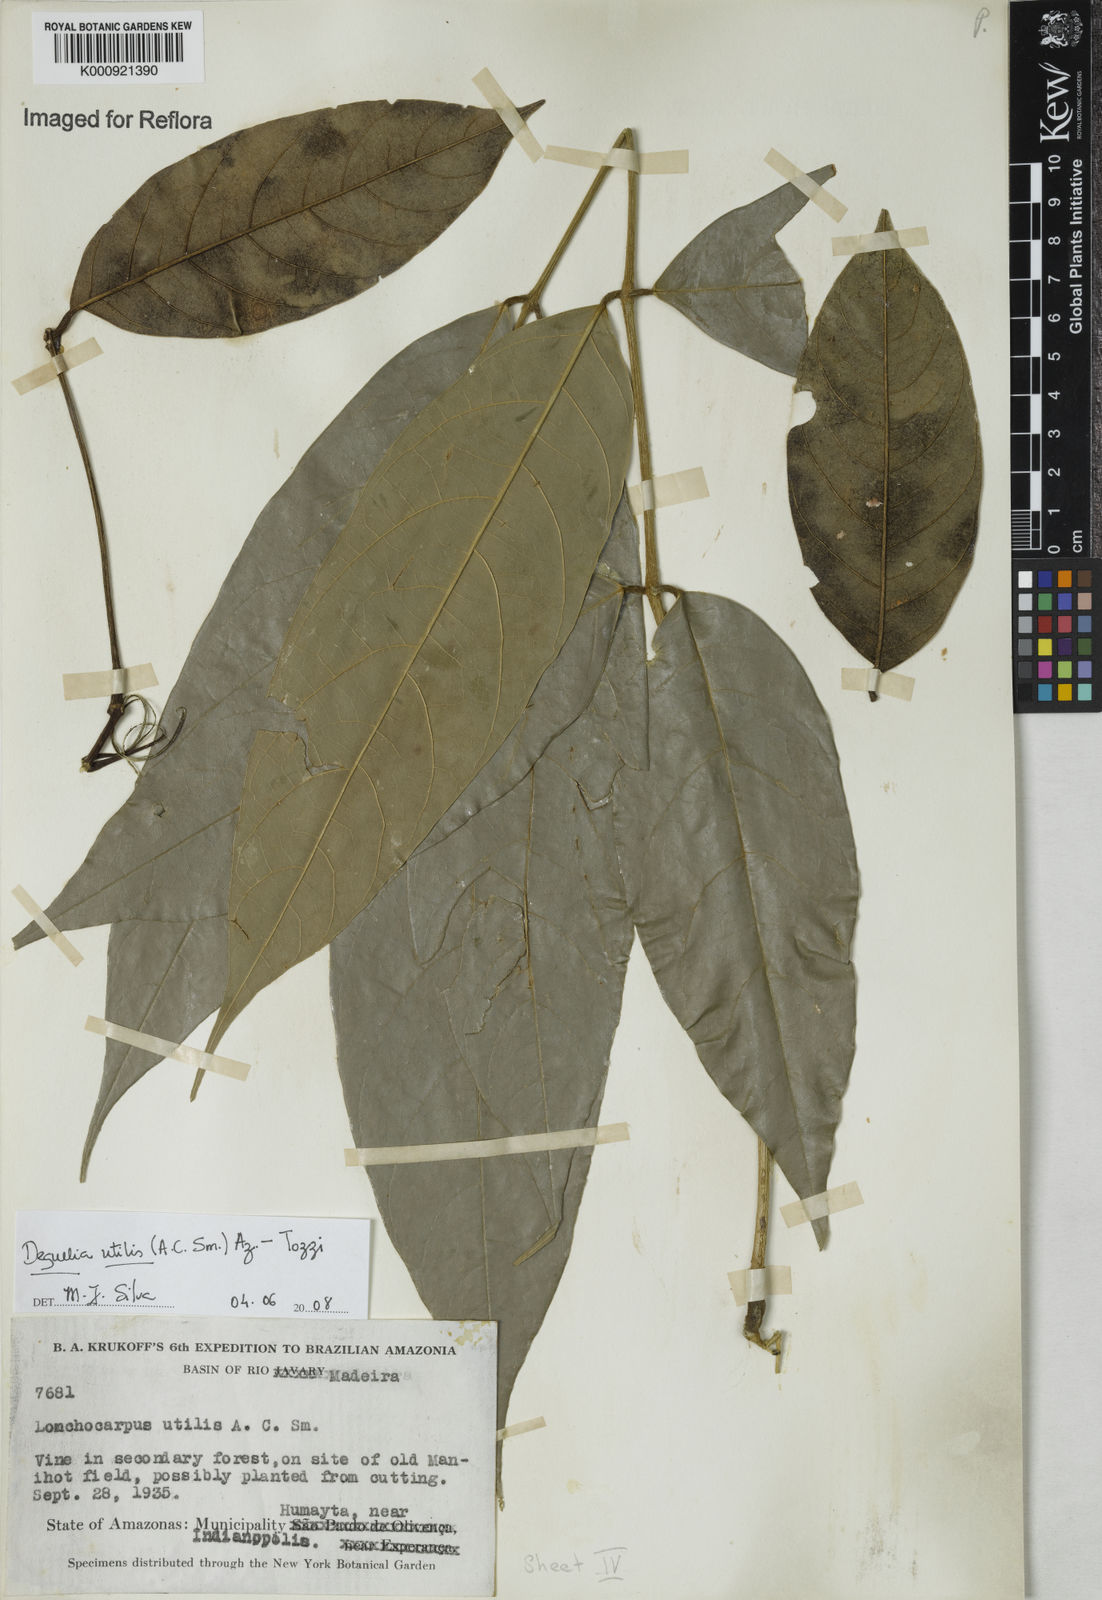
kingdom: Plantae
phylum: Tracheophyta
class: Magnoliopsida
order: Fabales
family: Fabaceae
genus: Deguelia
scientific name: Deguelia utilis
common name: Timbo
